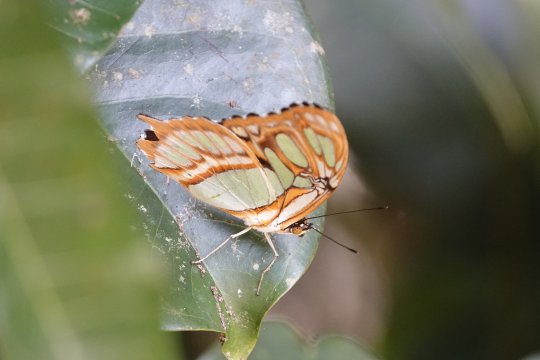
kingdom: Animalia
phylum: Arthropoda
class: Insecta
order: Lepidoptera
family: Nymphalidae
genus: Siproeta
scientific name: Siproeta stelenes
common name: Malachite
